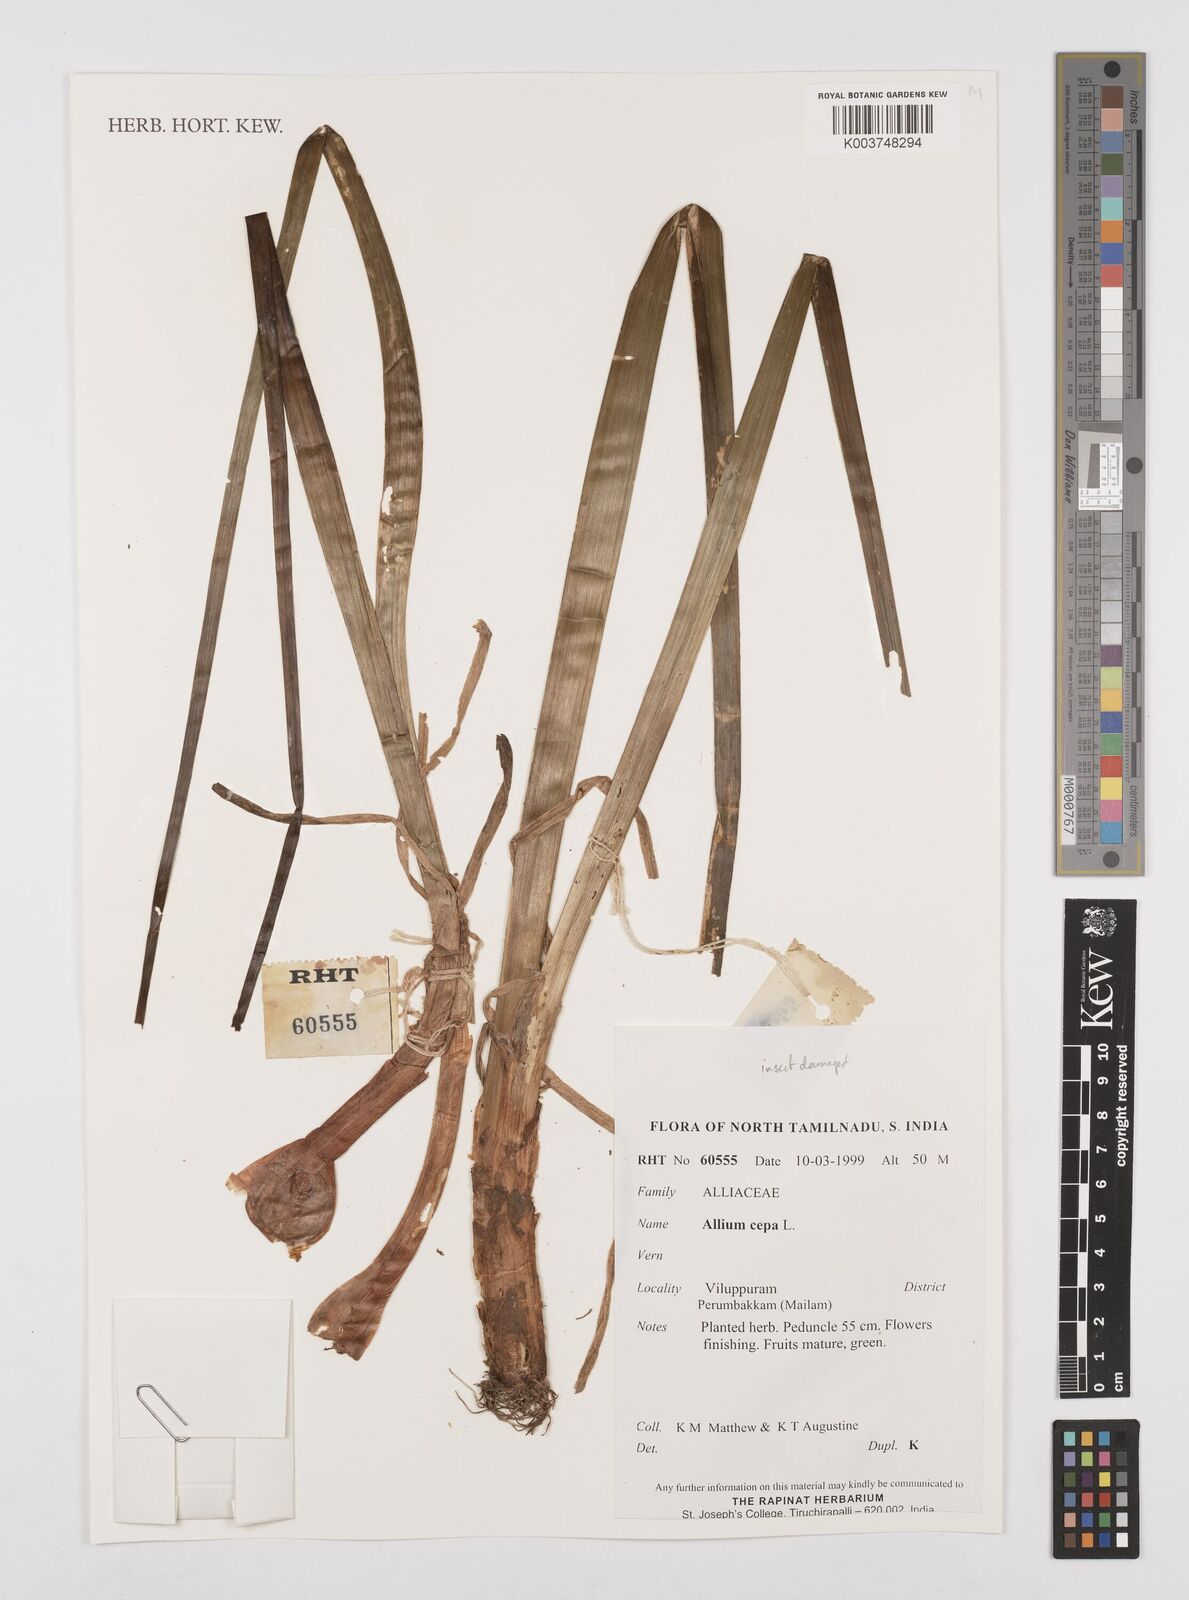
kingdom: Plantae
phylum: Tracheophyta
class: Liliopsida
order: Asparagales
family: Amaryllidaceae
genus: Allium
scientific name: Allium cepa
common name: Onion
